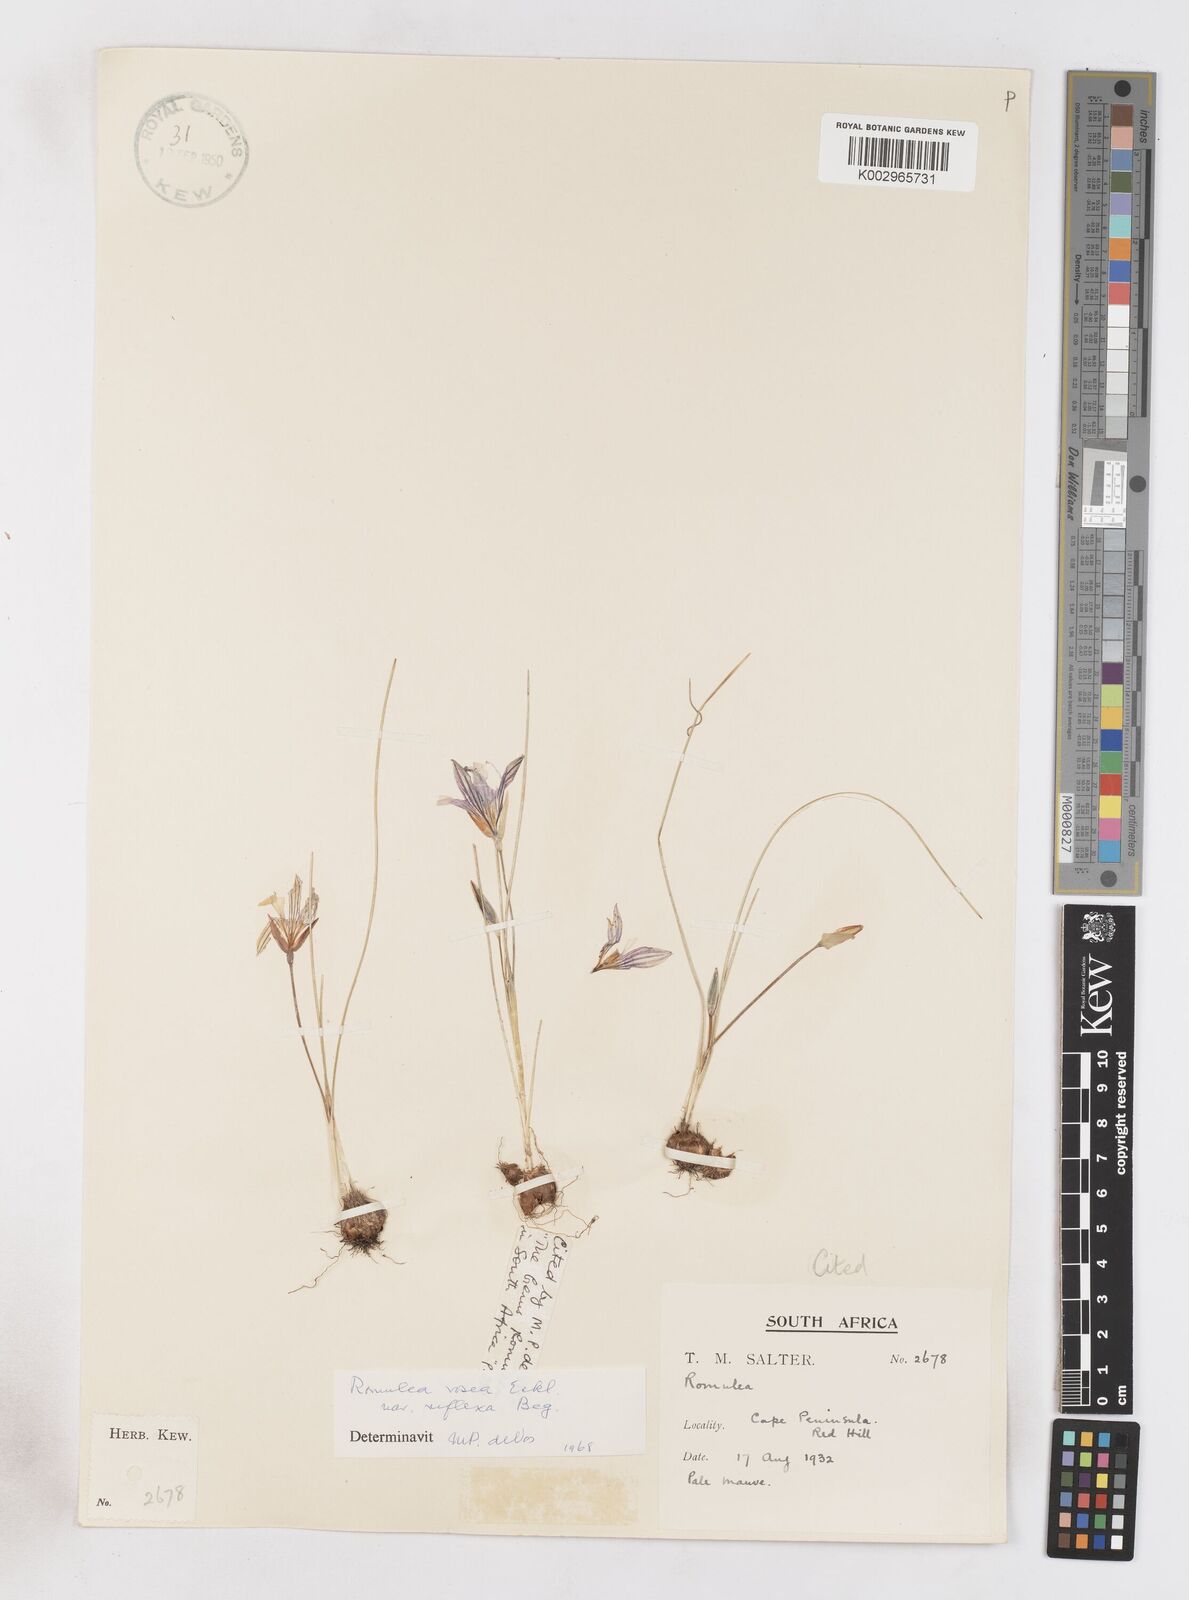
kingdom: Plantae
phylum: Tracheophyta
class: Liliopsida
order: Asparagales
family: Iridaceae
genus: Romulea
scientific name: Romulea rosea
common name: Oniongrass
